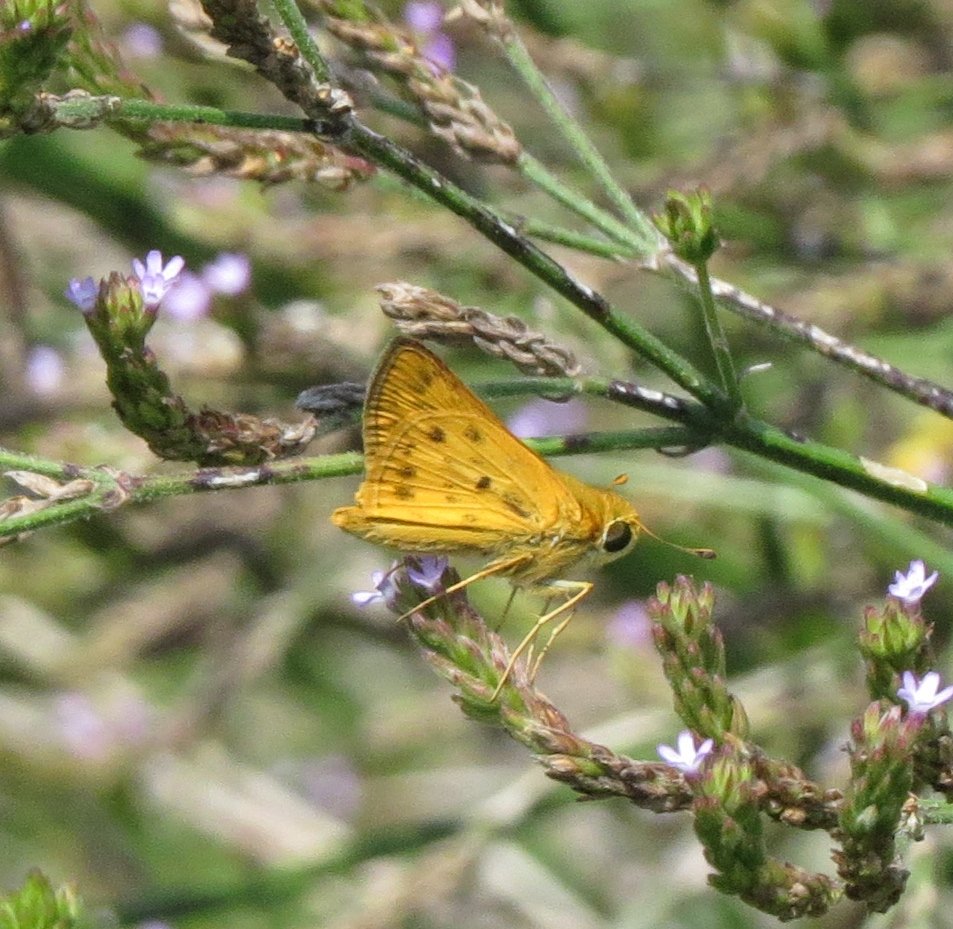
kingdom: Animalia
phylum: Arthropoda
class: Insecta
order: Lepidoptera
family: Hesperiidae
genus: Hylephila
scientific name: Hylephila phyleus
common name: Fiery Skipper
